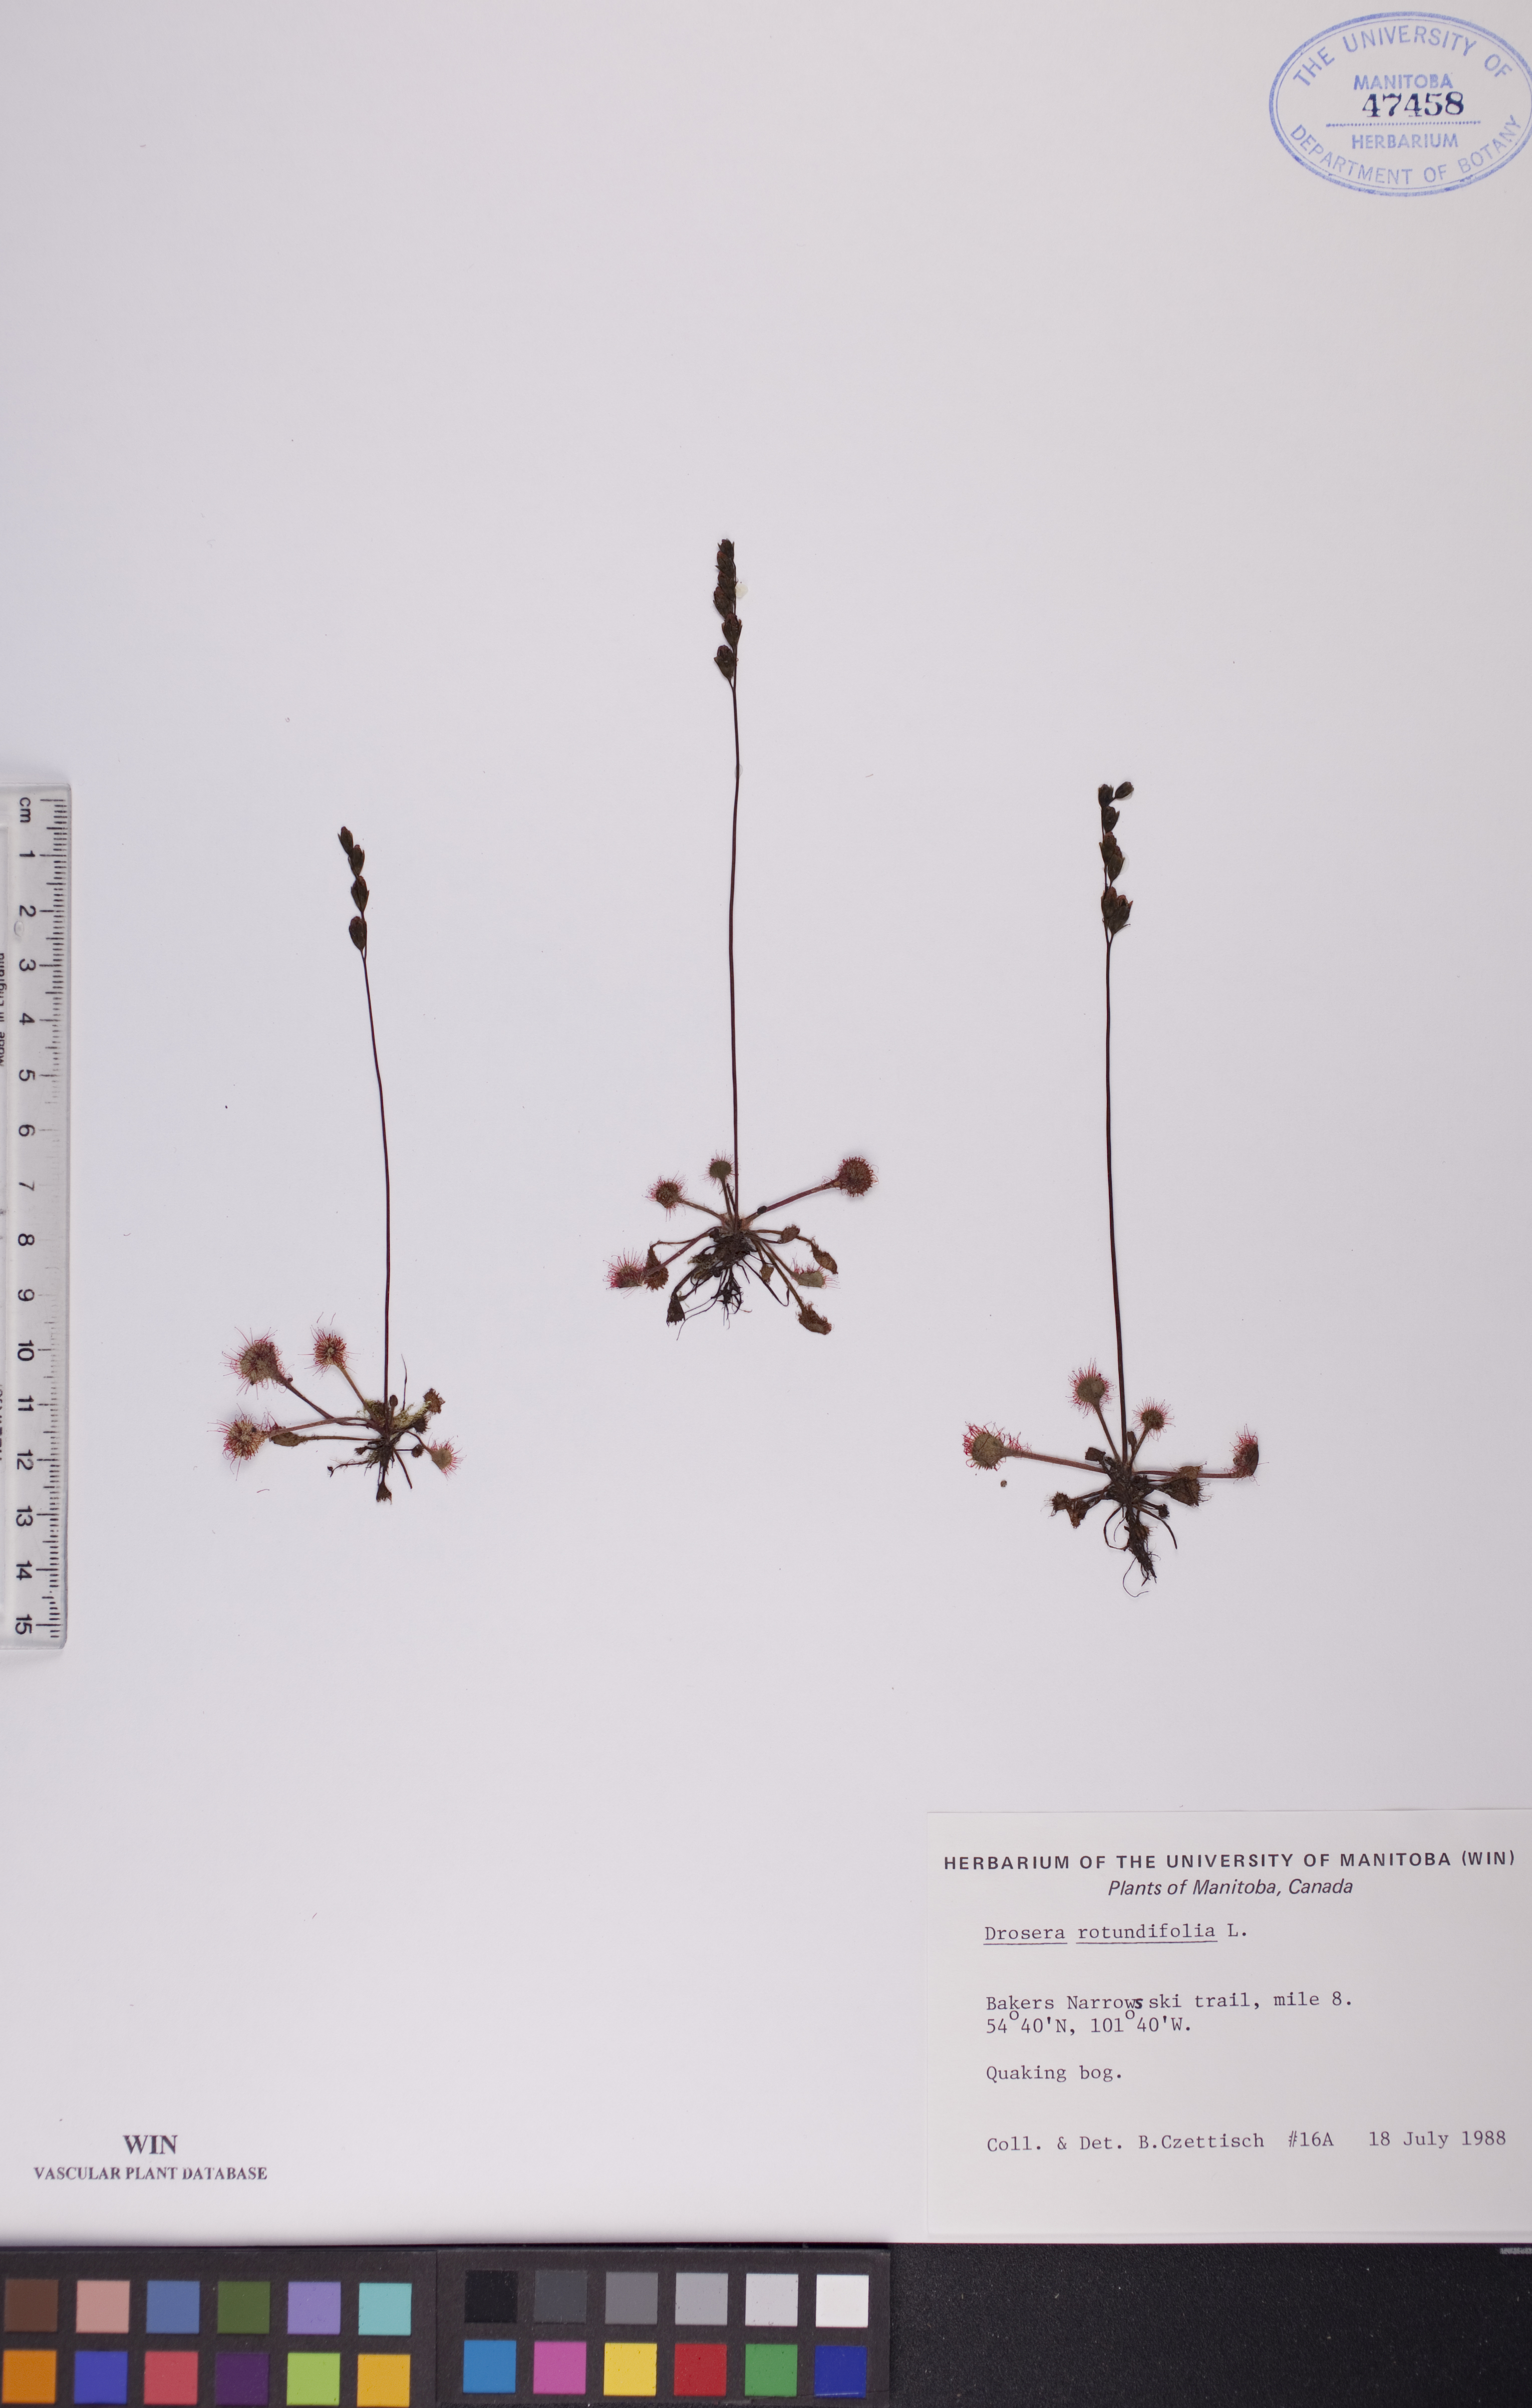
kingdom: Plantae
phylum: Tracheophyta
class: Magnoliopsida
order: Caryophyllales
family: Droseraceae
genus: Drosera
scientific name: Drosera rotundifolia
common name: Round-leaved sundew
